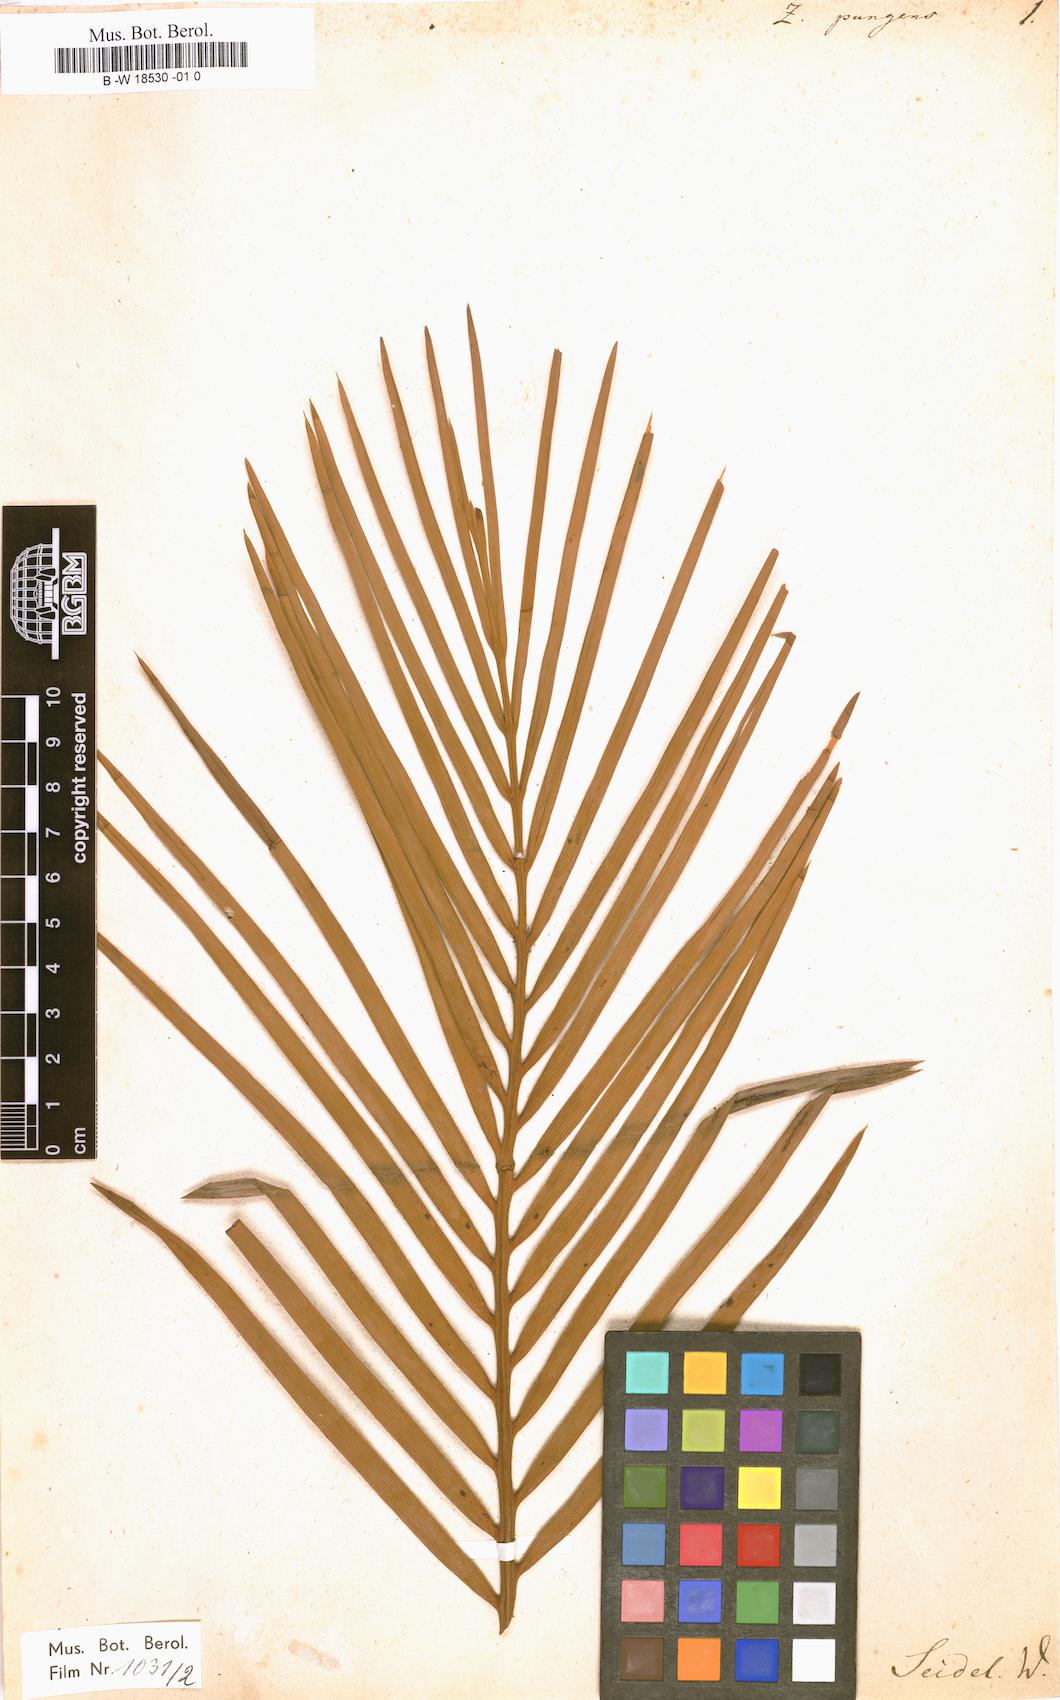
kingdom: Plantae
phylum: Tracheophyta
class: Liliopsida
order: Arecales
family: Arecaceae
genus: Phoenix
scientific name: Phoenix dactylifera
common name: Date palm
